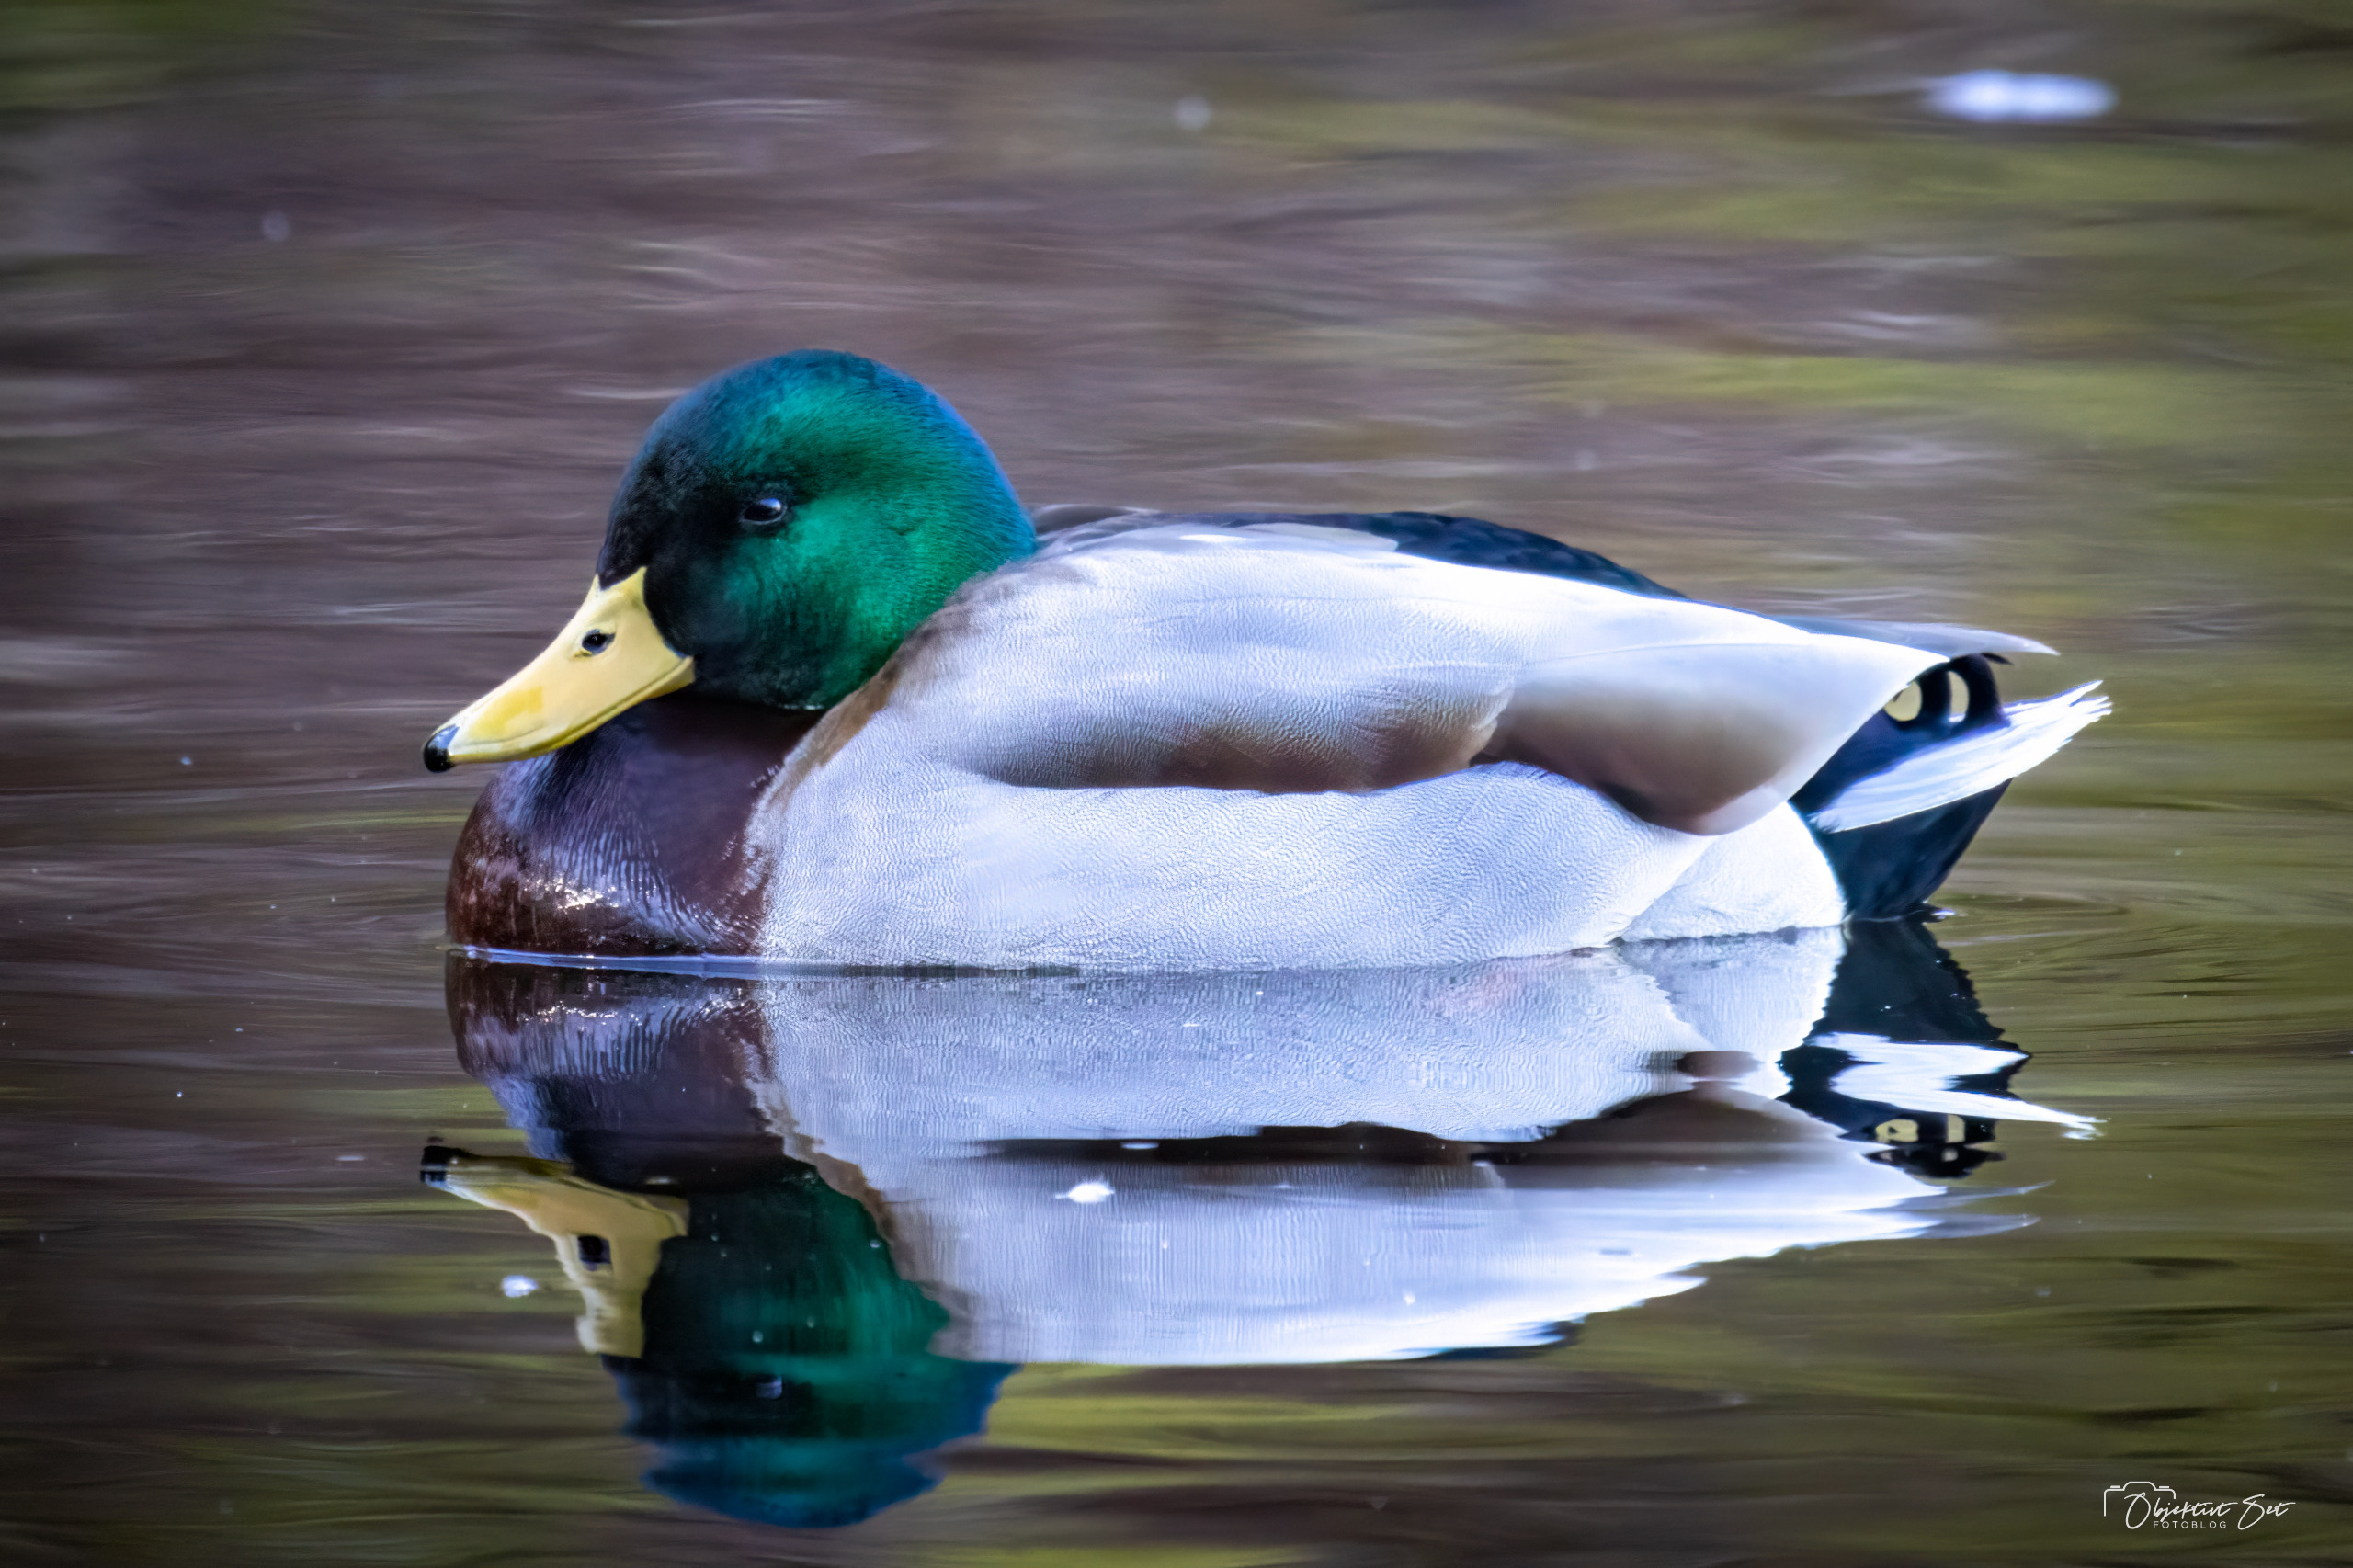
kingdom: Animalia
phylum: Chordata
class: Aves
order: Anseriformes
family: Anatidae
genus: Anas
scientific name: Anas platyrhynchos
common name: Gråand
